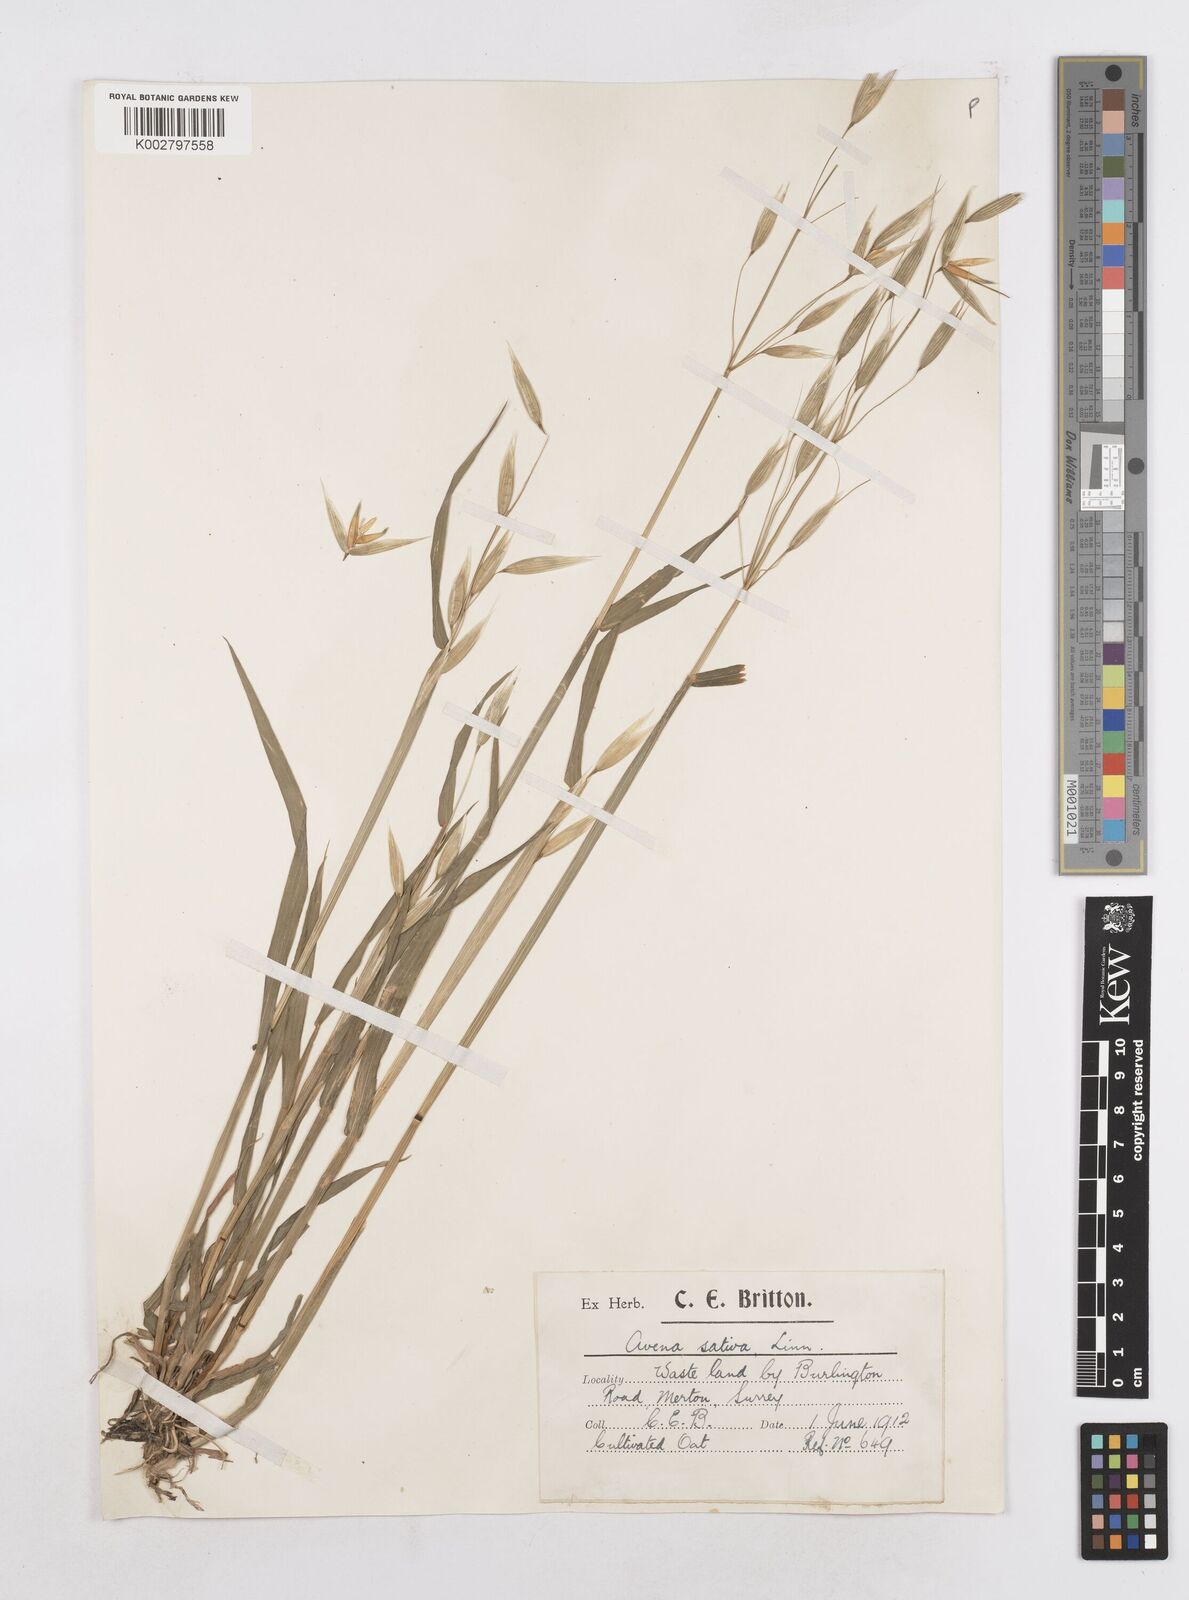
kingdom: Plantae
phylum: Tracheophyta
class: Liliopsida
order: Poales
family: Poaceae
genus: Avena
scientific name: Avena
